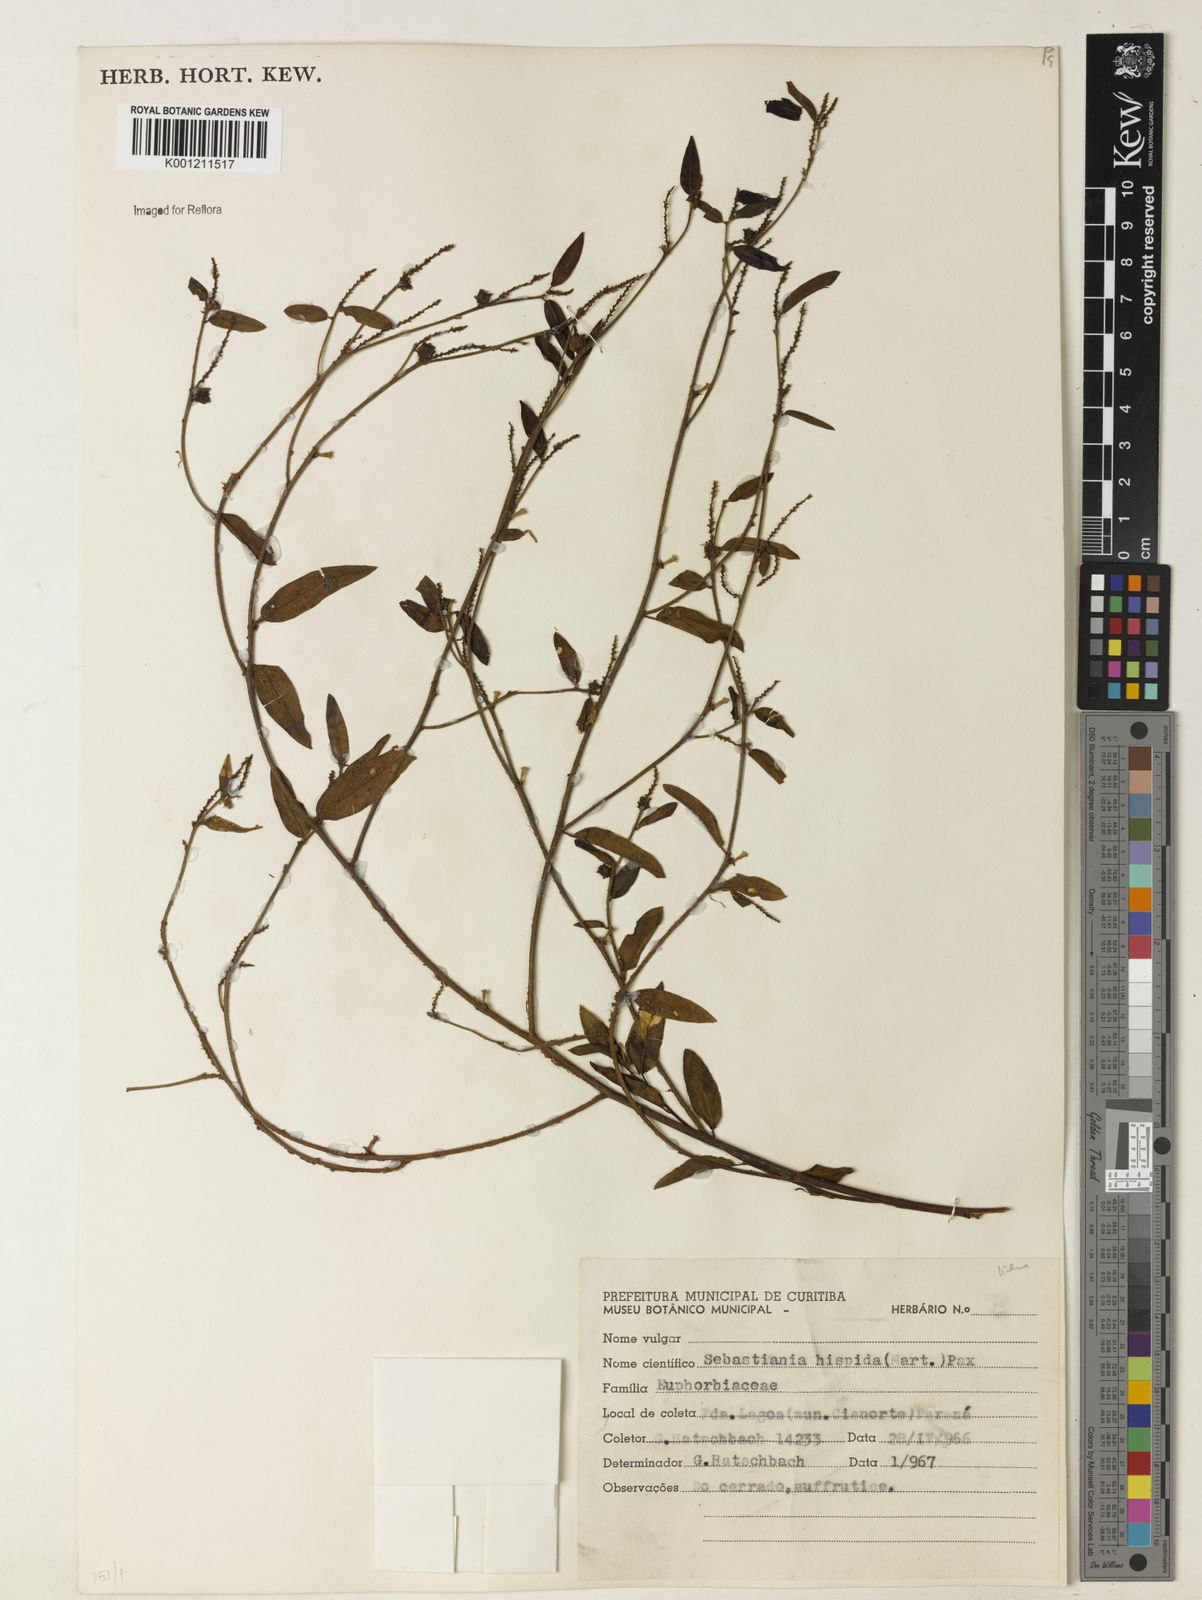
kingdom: Plantae
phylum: Tracheophyta
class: Magnoliopsida
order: Malpighiales
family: Euphorbiaceae
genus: Microstachys
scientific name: Microstachys hispida
